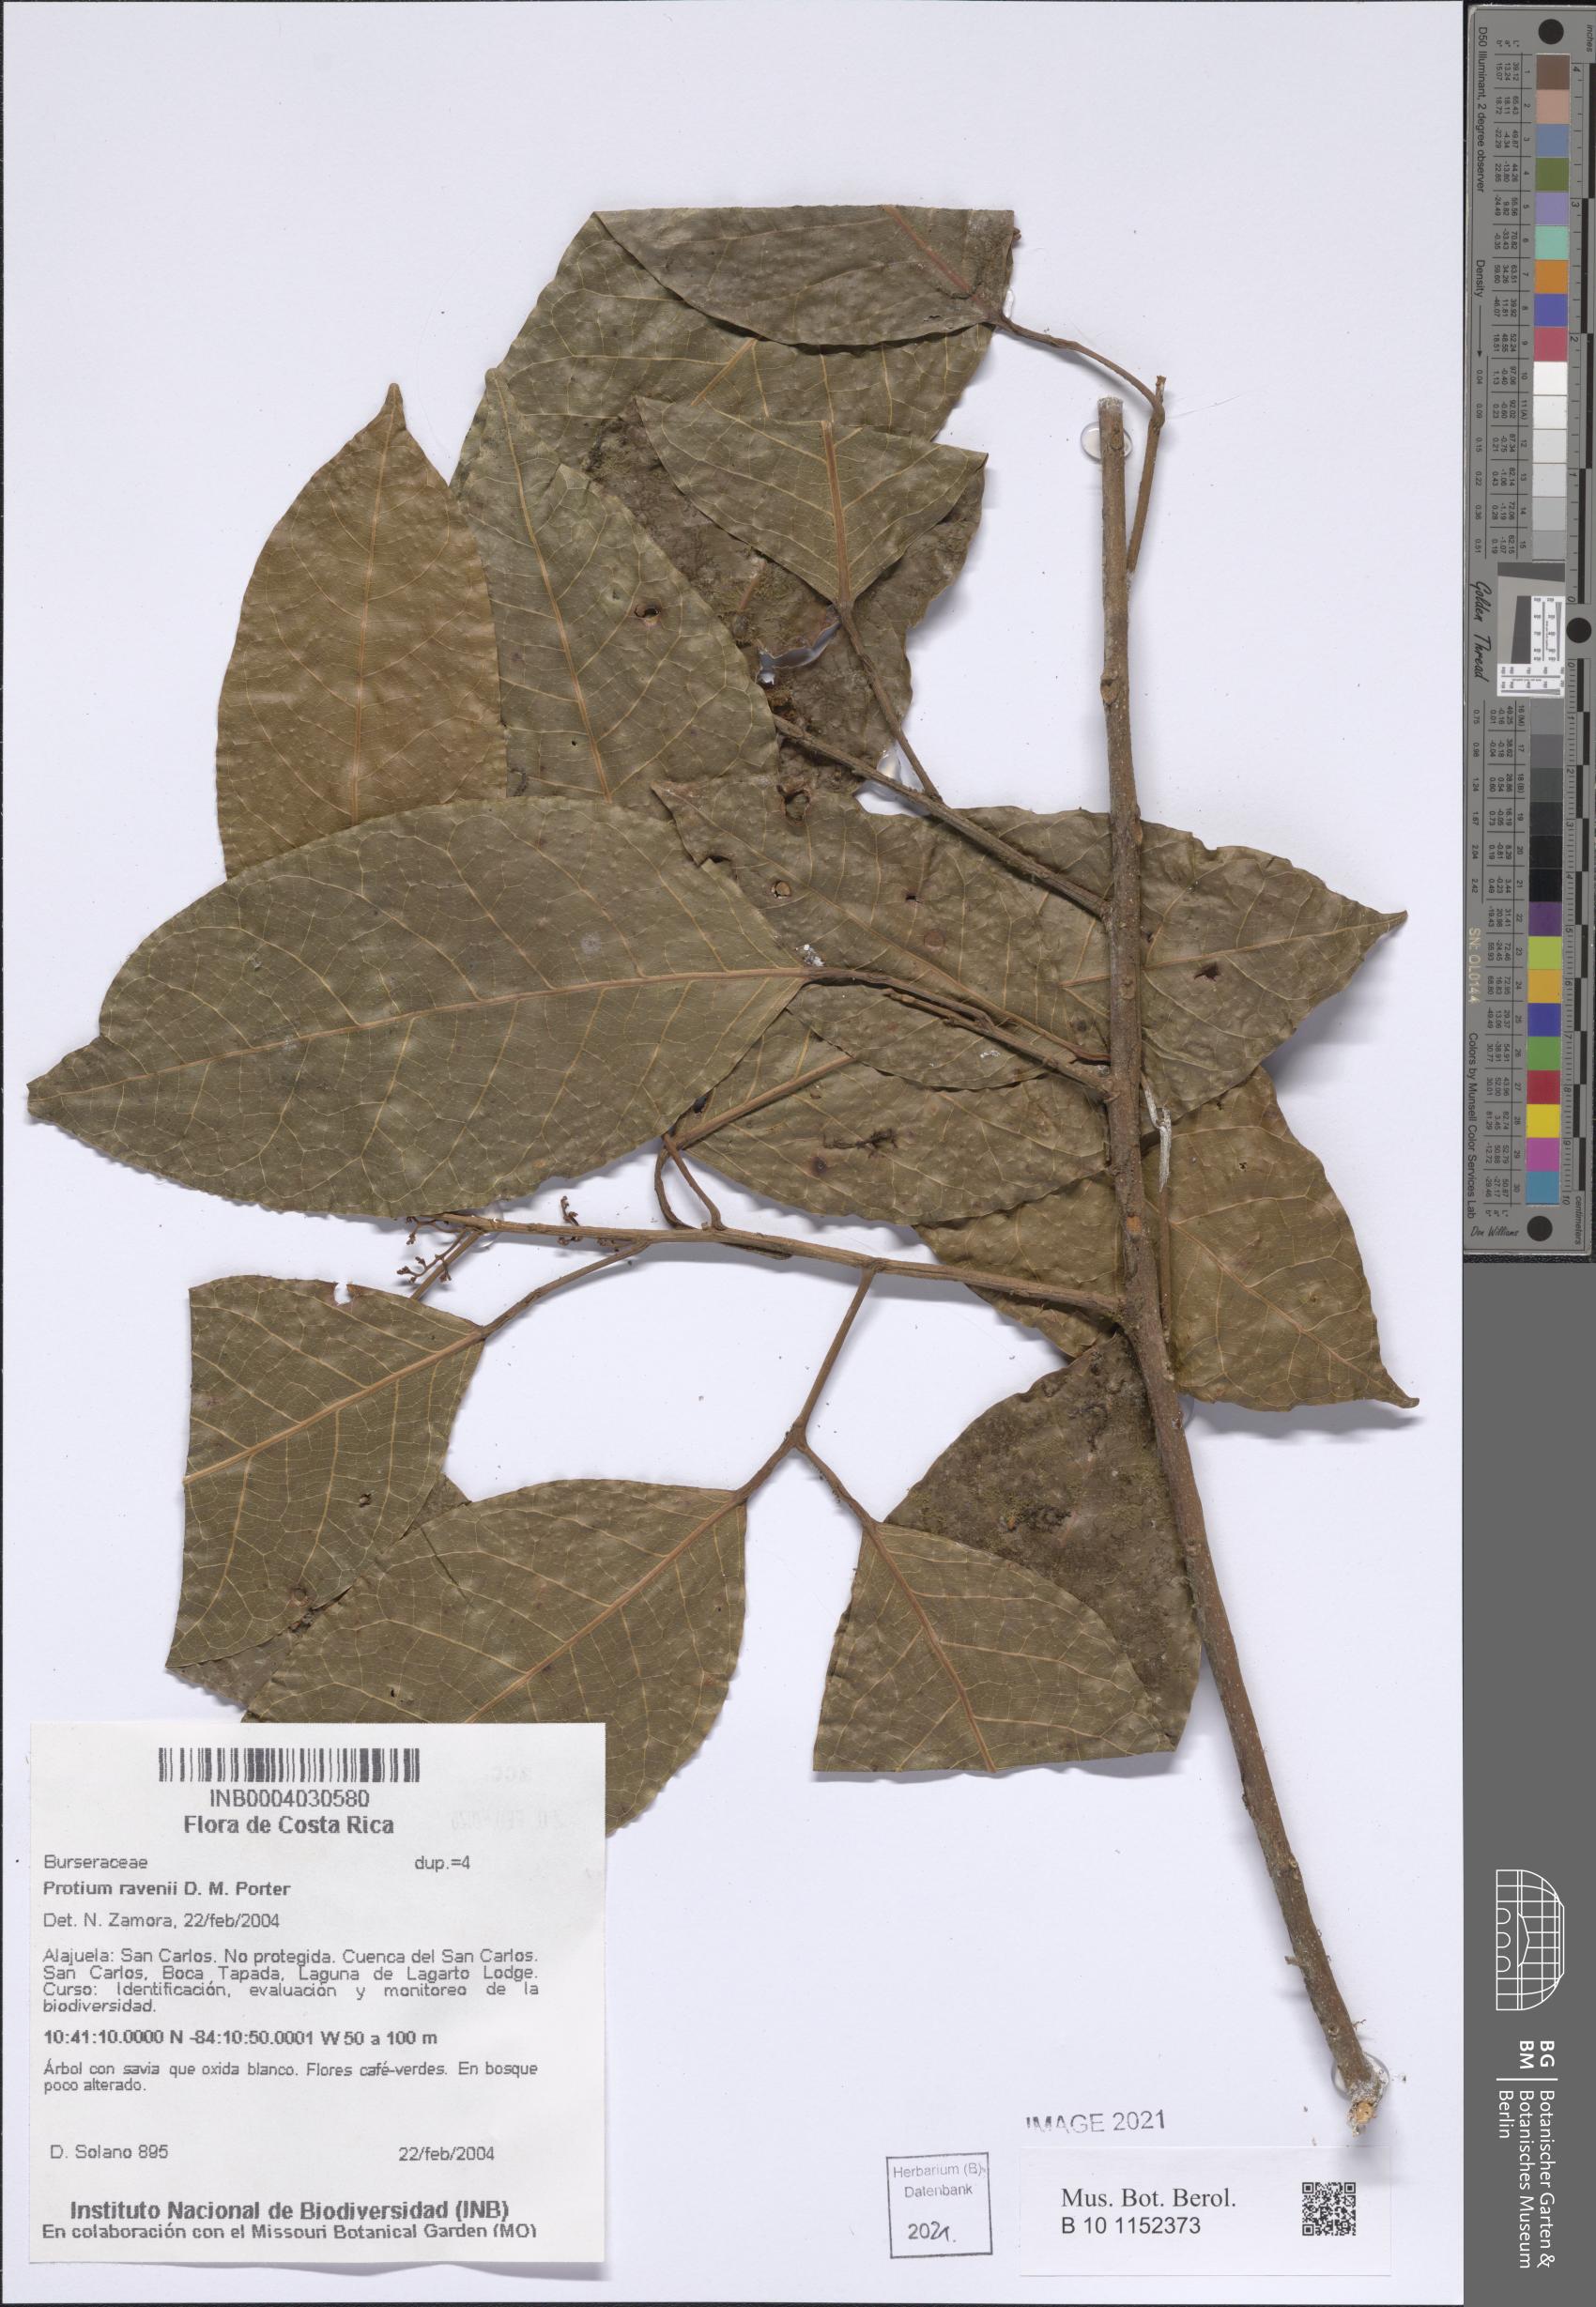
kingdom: Plantae
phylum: Tracheophyta
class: Magnoliopsida
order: Sapindales
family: Burseraceae
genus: Protium
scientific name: Protium ravenii
